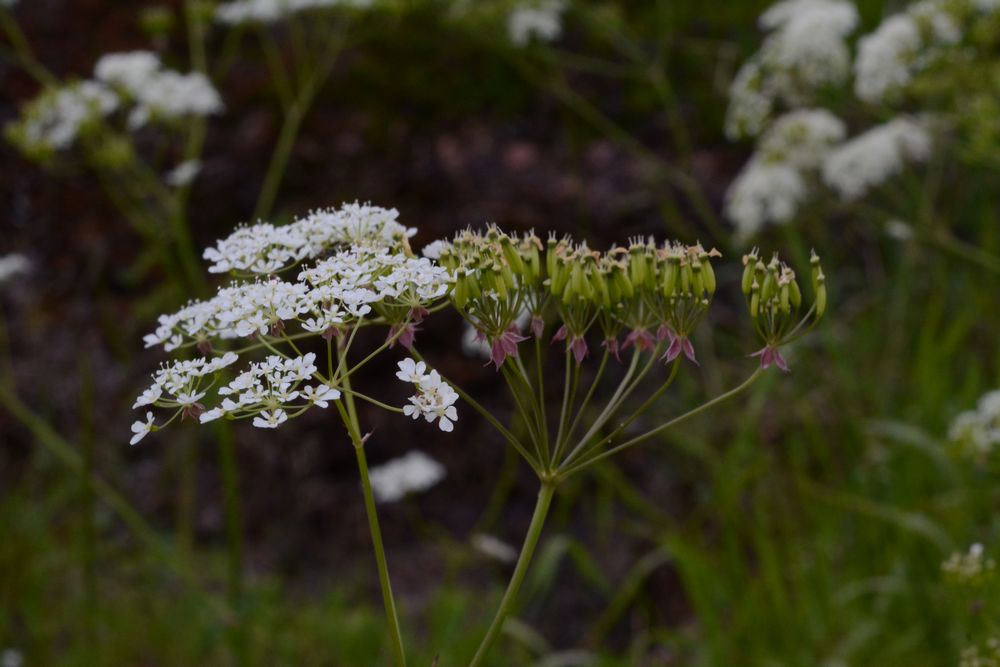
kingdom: Plantae
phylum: Tracheophyta
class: Magnoliopsida
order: Apiales
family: Apiaceae
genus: Anthriscus
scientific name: Anthriscus sylvestris
